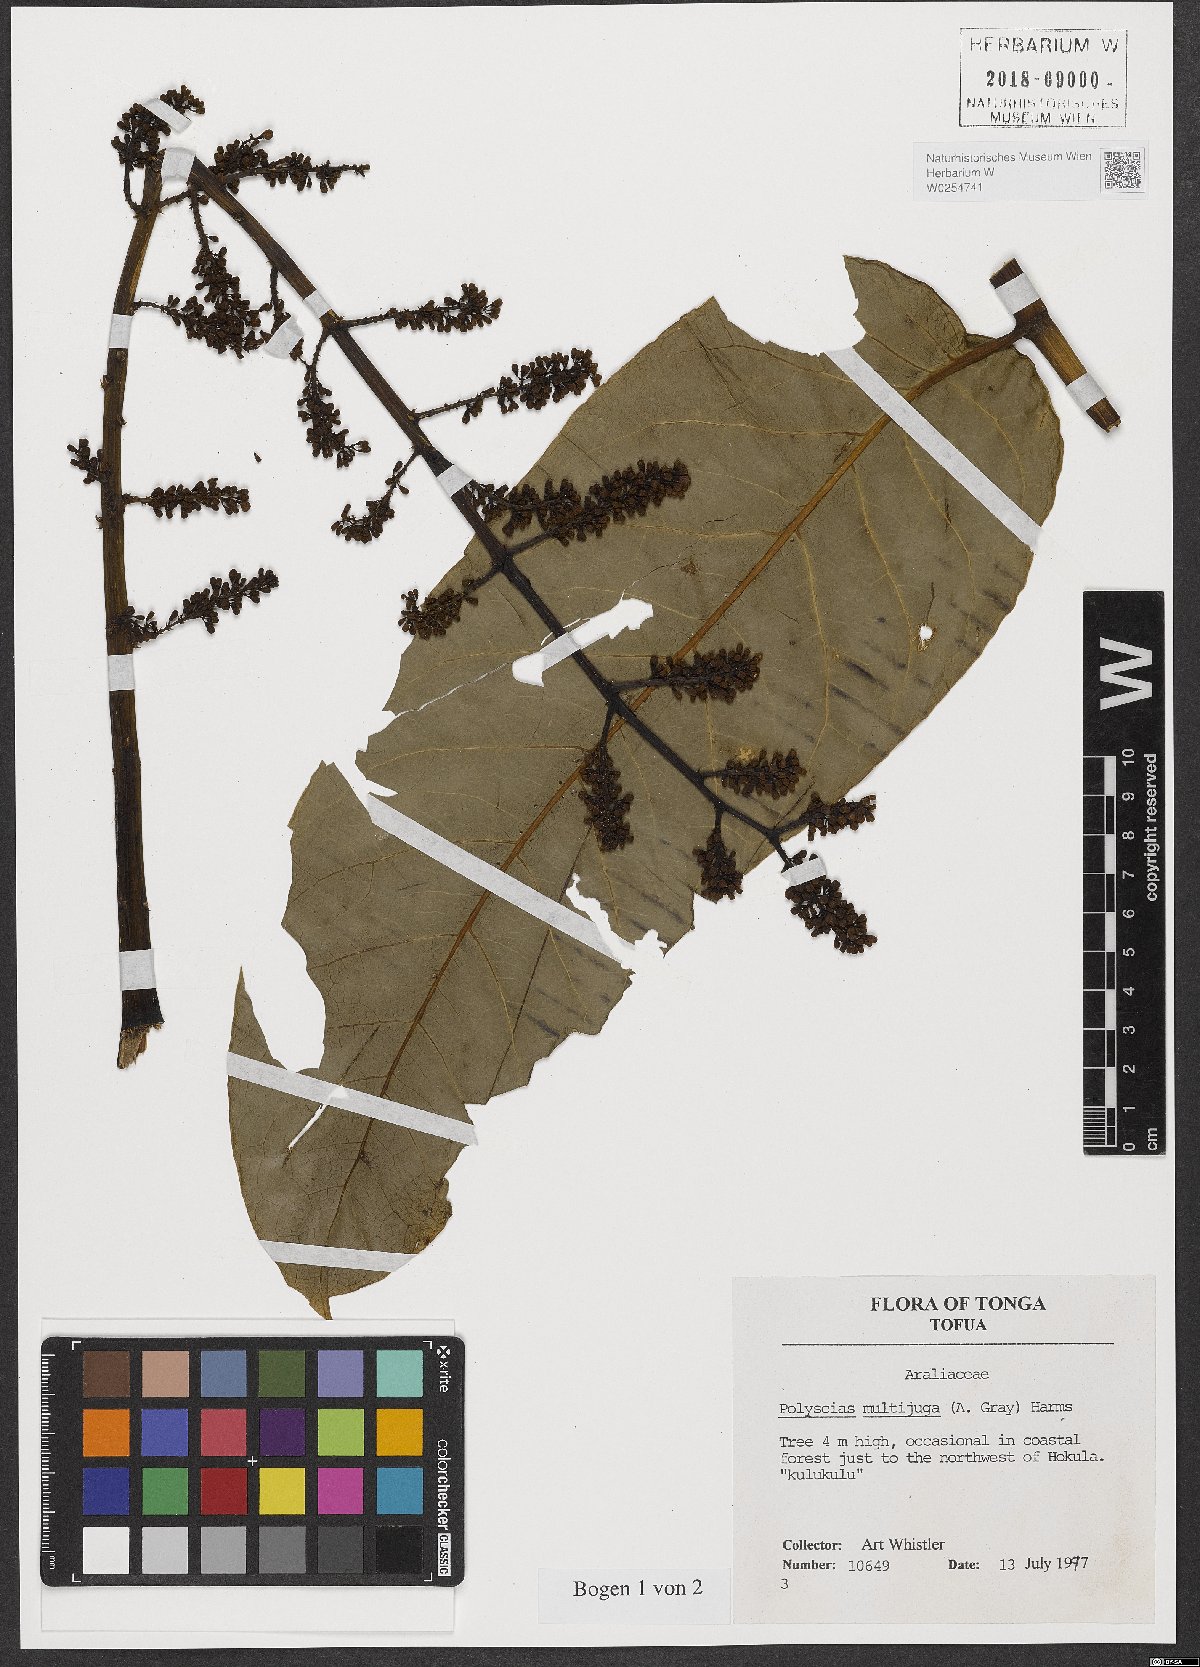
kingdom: Plantae
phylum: Tracheophyta
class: Magnoliopsida
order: Apiales
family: Araliaceae
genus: Polyscias
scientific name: Polyscias multijuga
